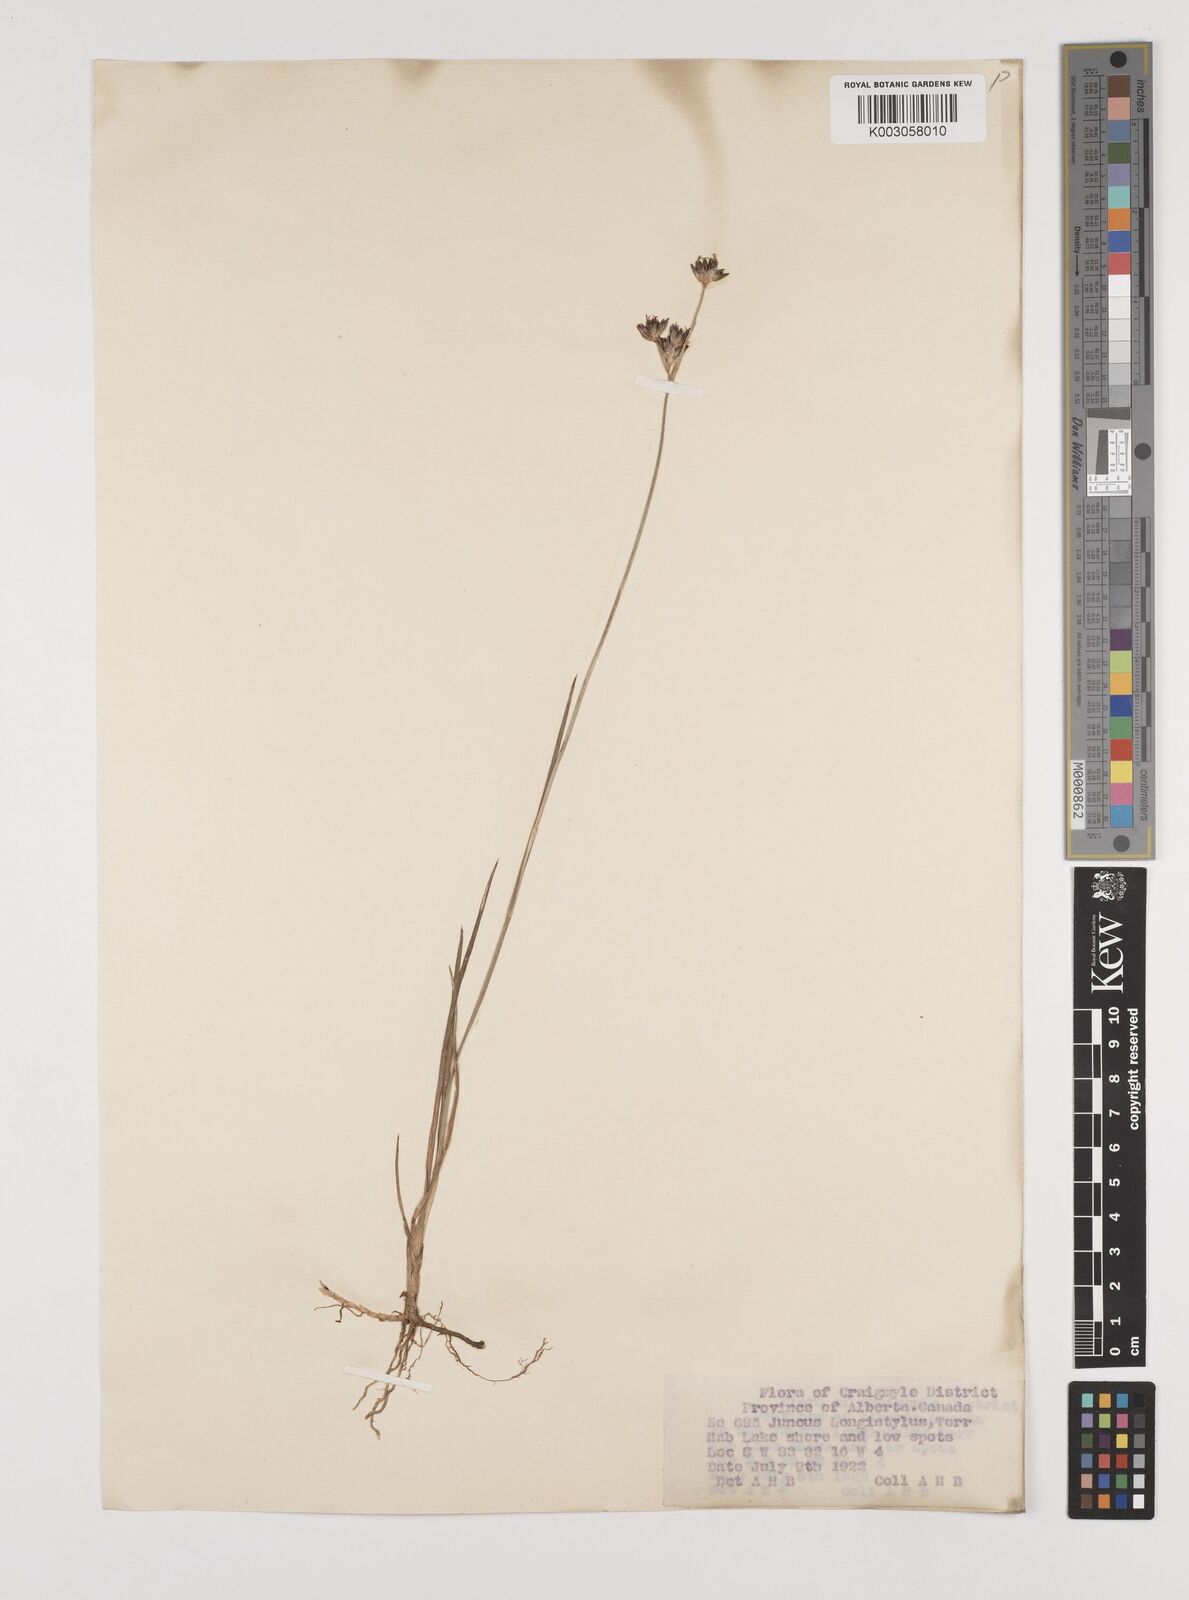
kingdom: Plantae
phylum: Tracheophyta
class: Liliopsida
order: Poales
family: Juncaceae
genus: Juncus
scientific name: Juncus longistylis
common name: Long-style rush
